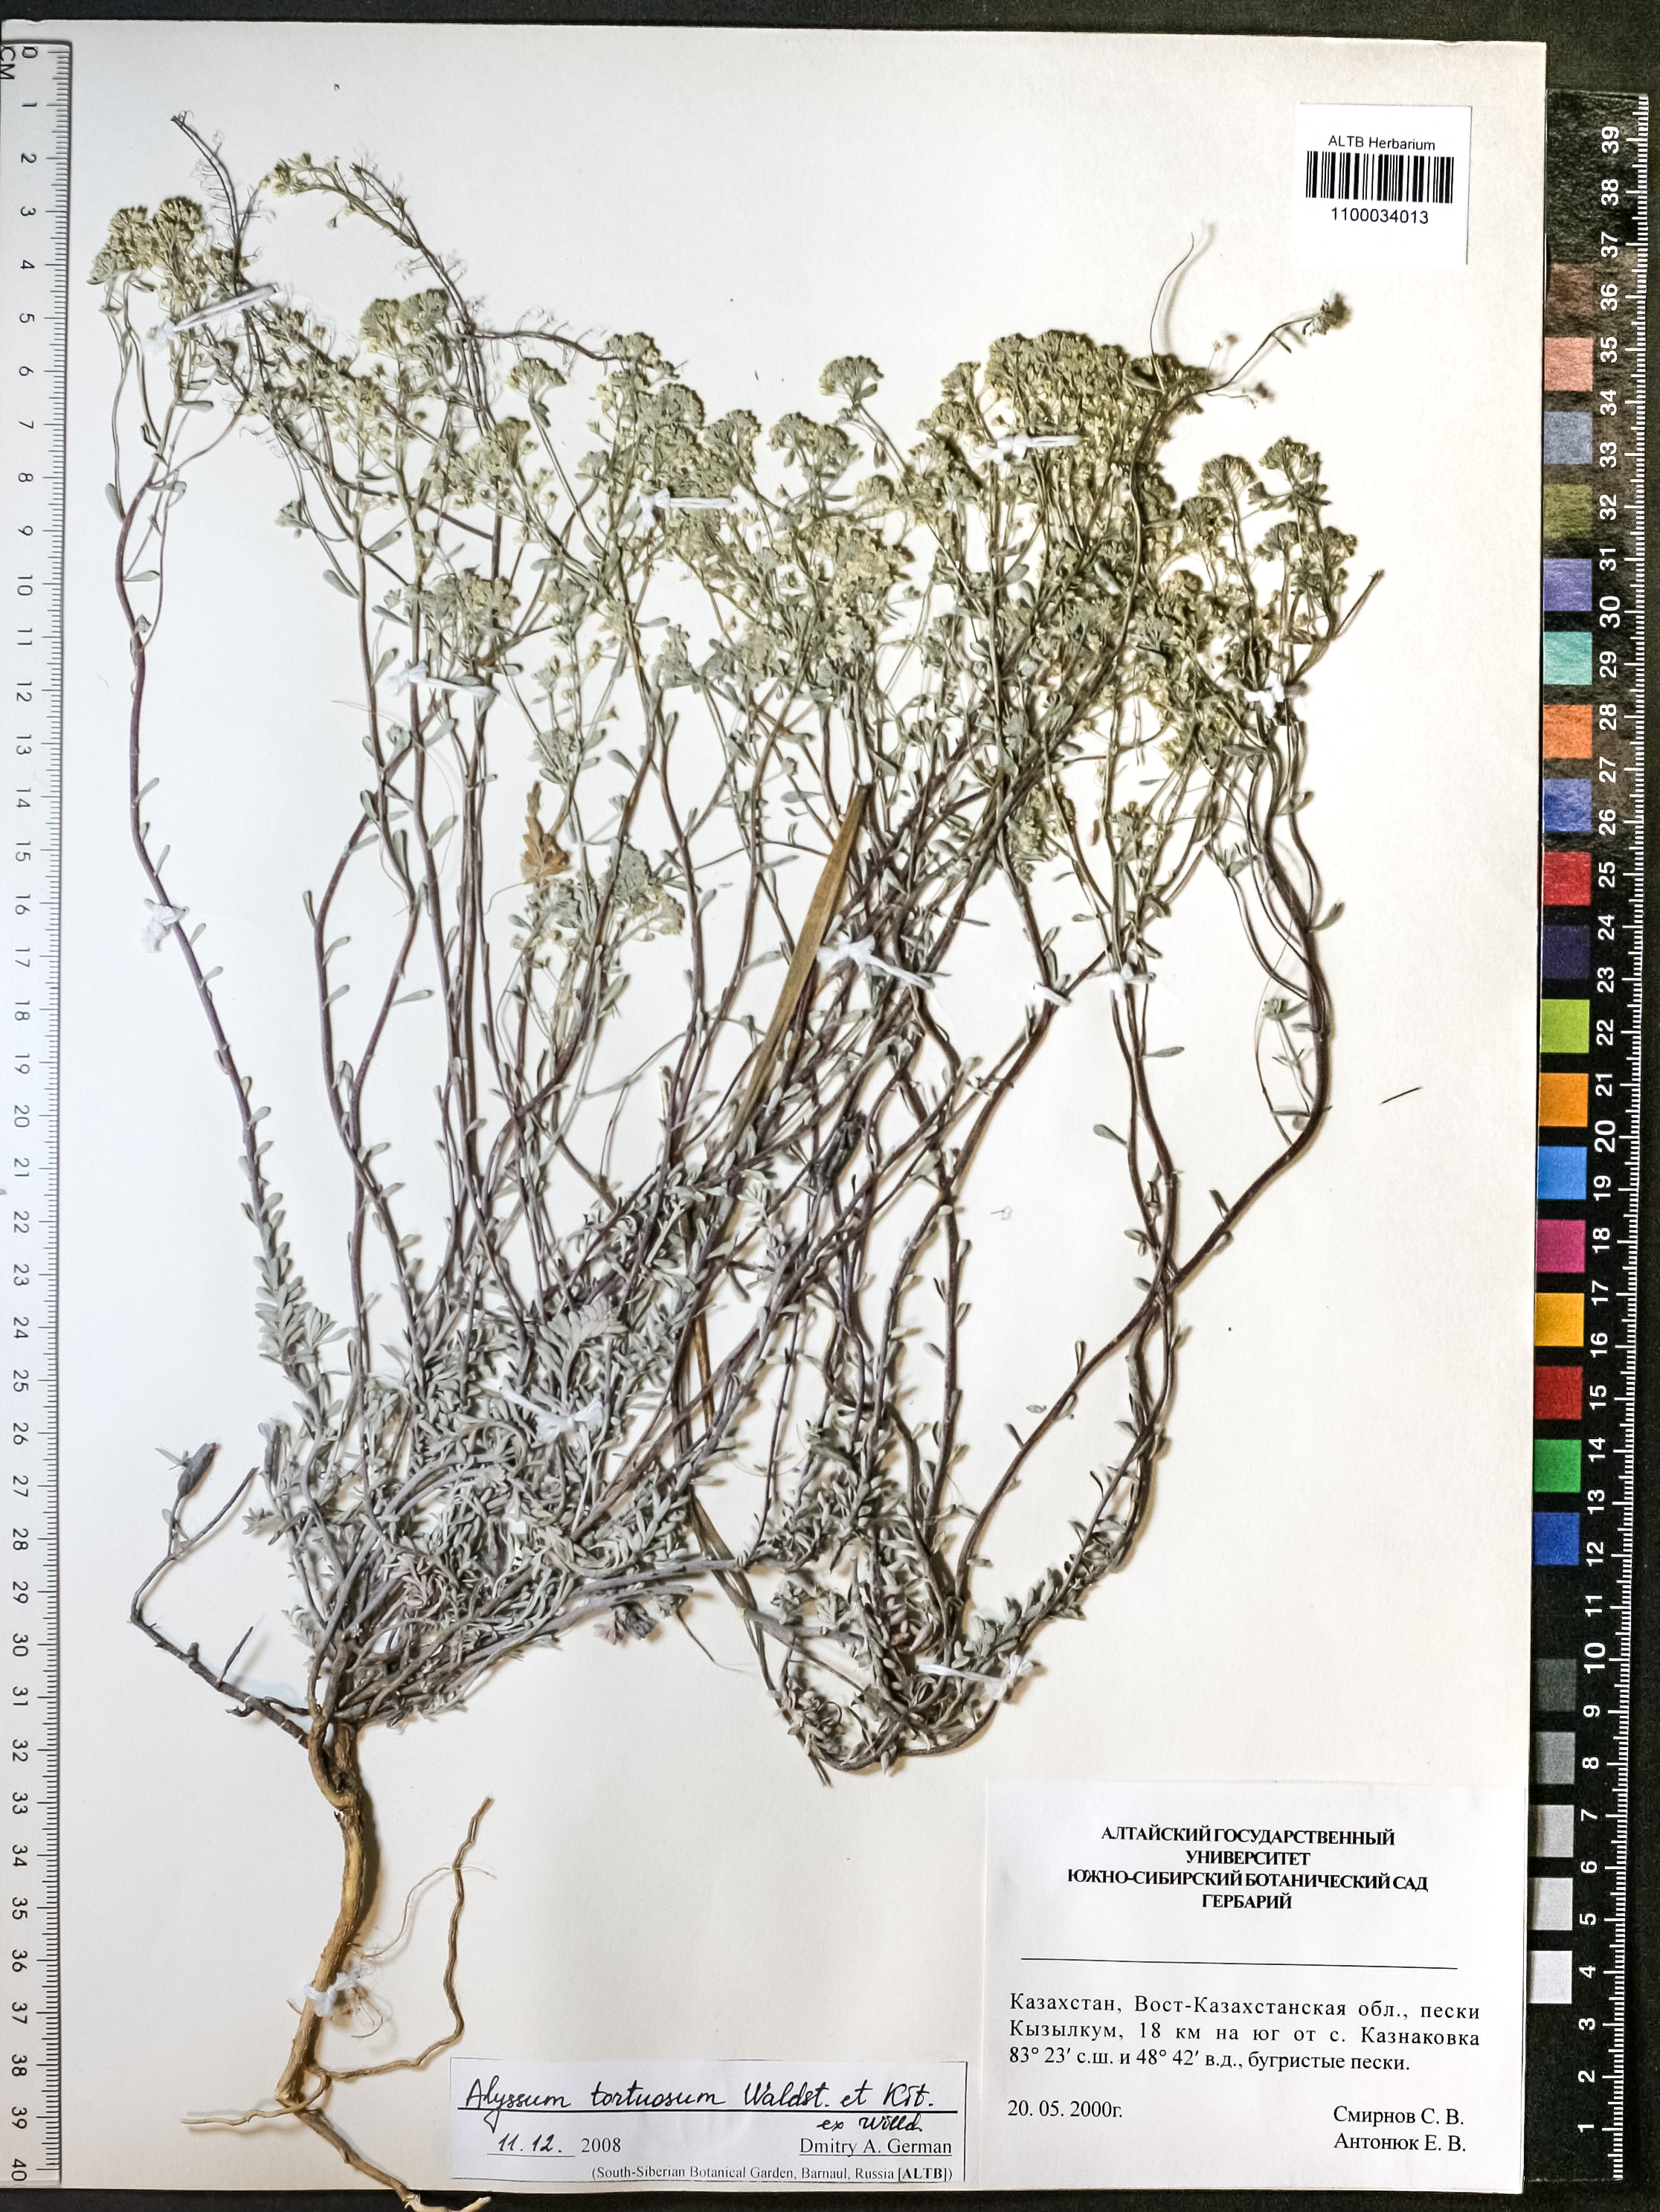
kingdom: Plantae
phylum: Tracheophyta
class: Magnoliopsida
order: Brassicales
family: Brassicaceae
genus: Odontarrhena
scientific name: Odontarrhena alpestris
